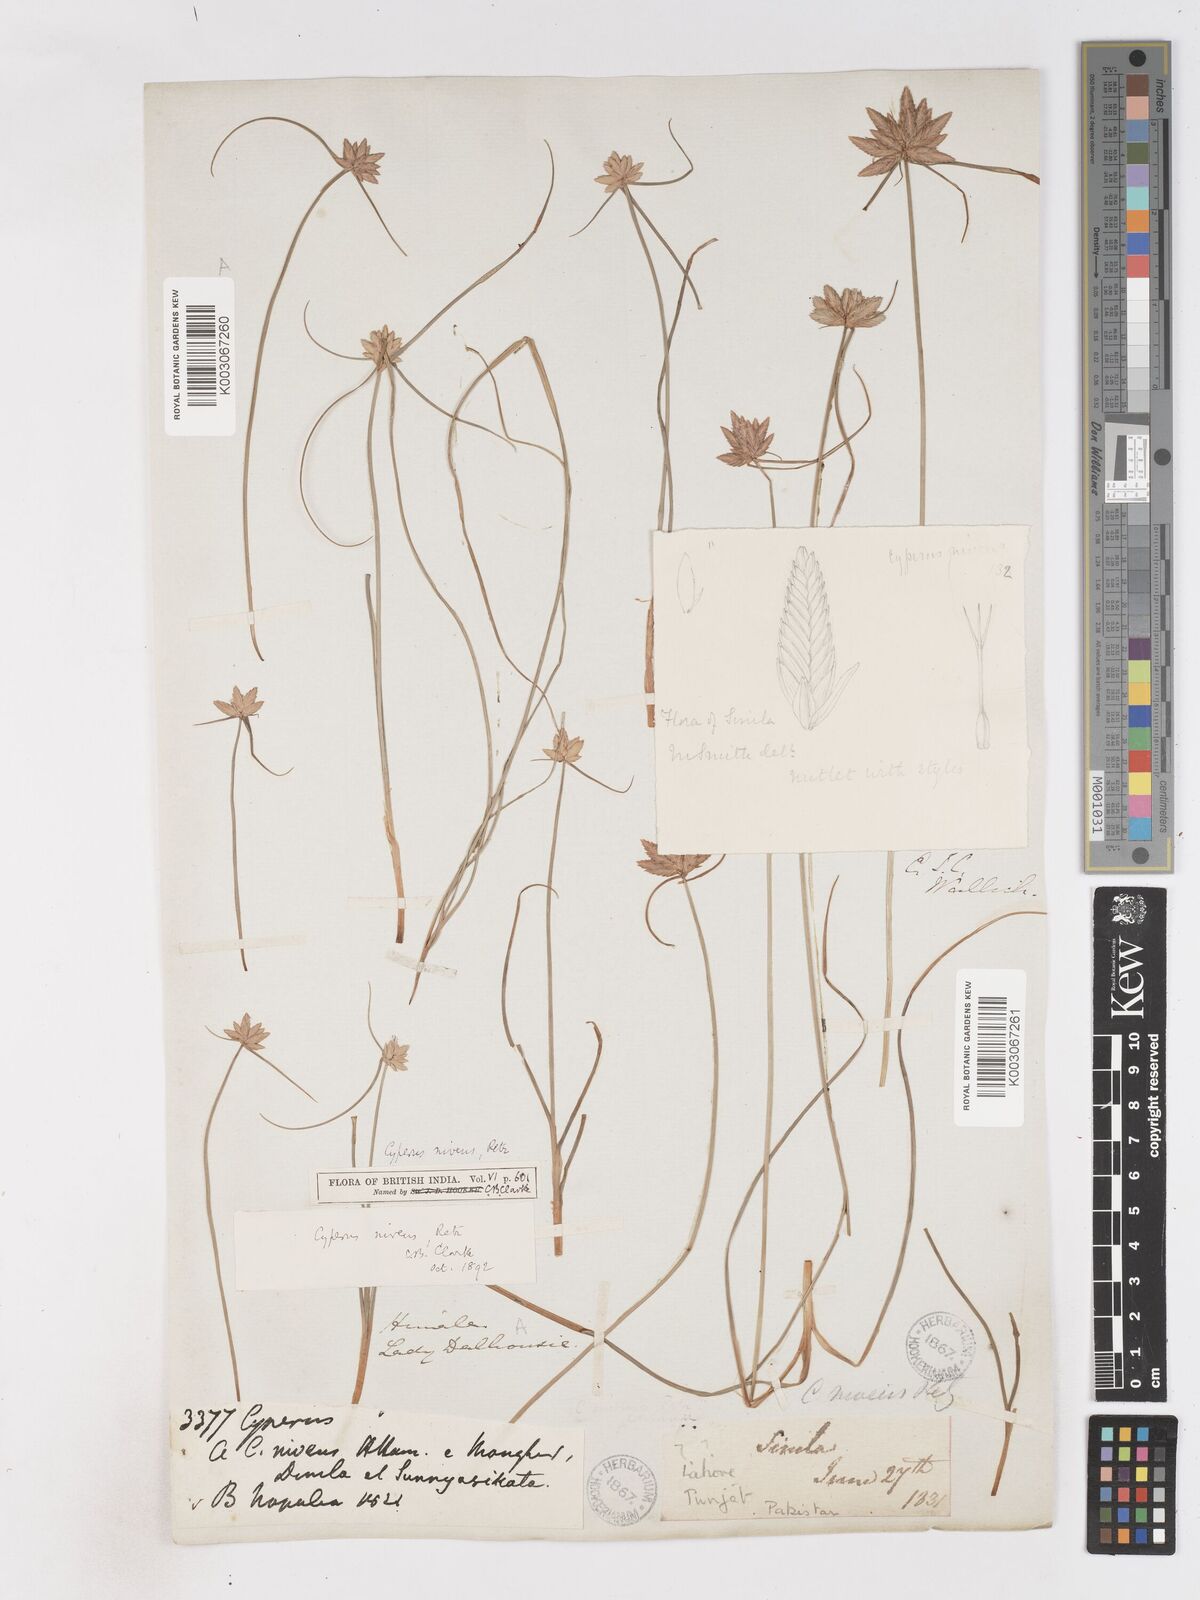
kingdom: Plantae
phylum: Tracheophyta
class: Liliopsida
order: Poales
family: Cyperaceae
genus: Cyperus
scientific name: Cyperus niveus
